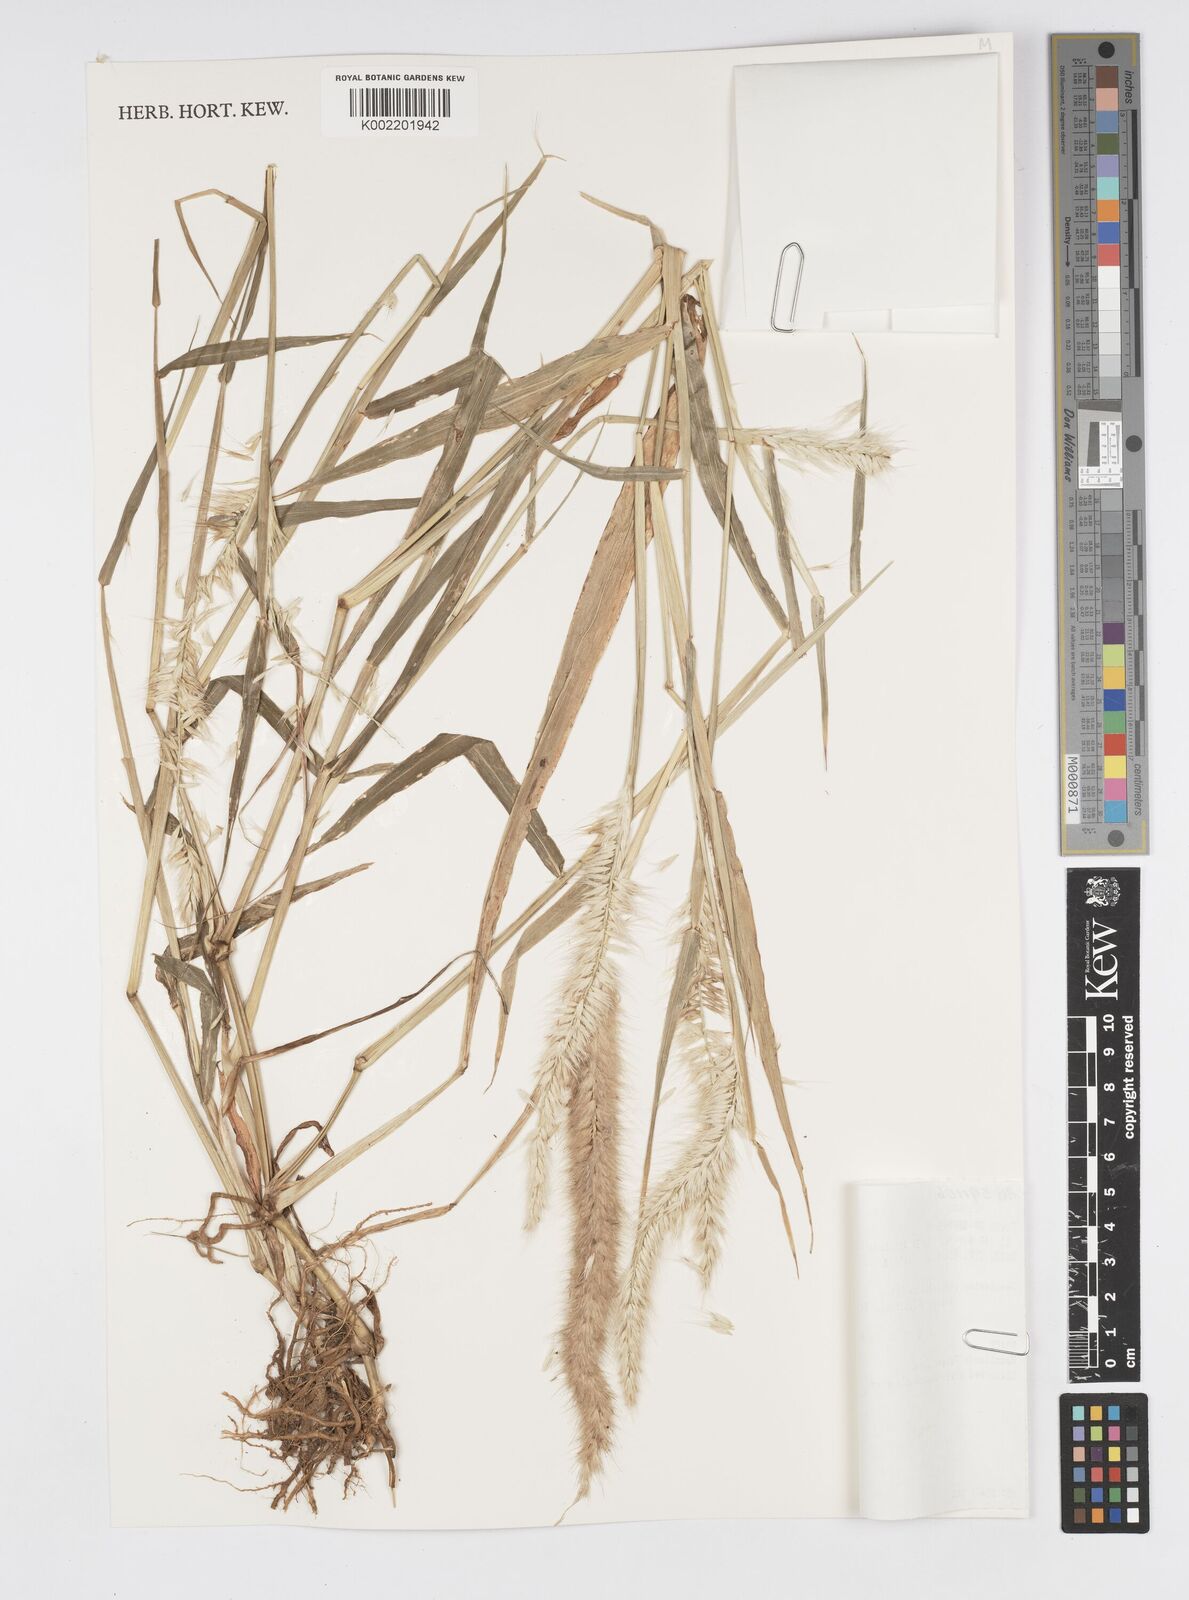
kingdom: Plantae
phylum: Tracheophyta
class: Liliopsida
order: Poales
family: Poaceae
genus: Cenchrus
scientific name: Cenchrus pedicellatus
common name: Hairy fountain grass
